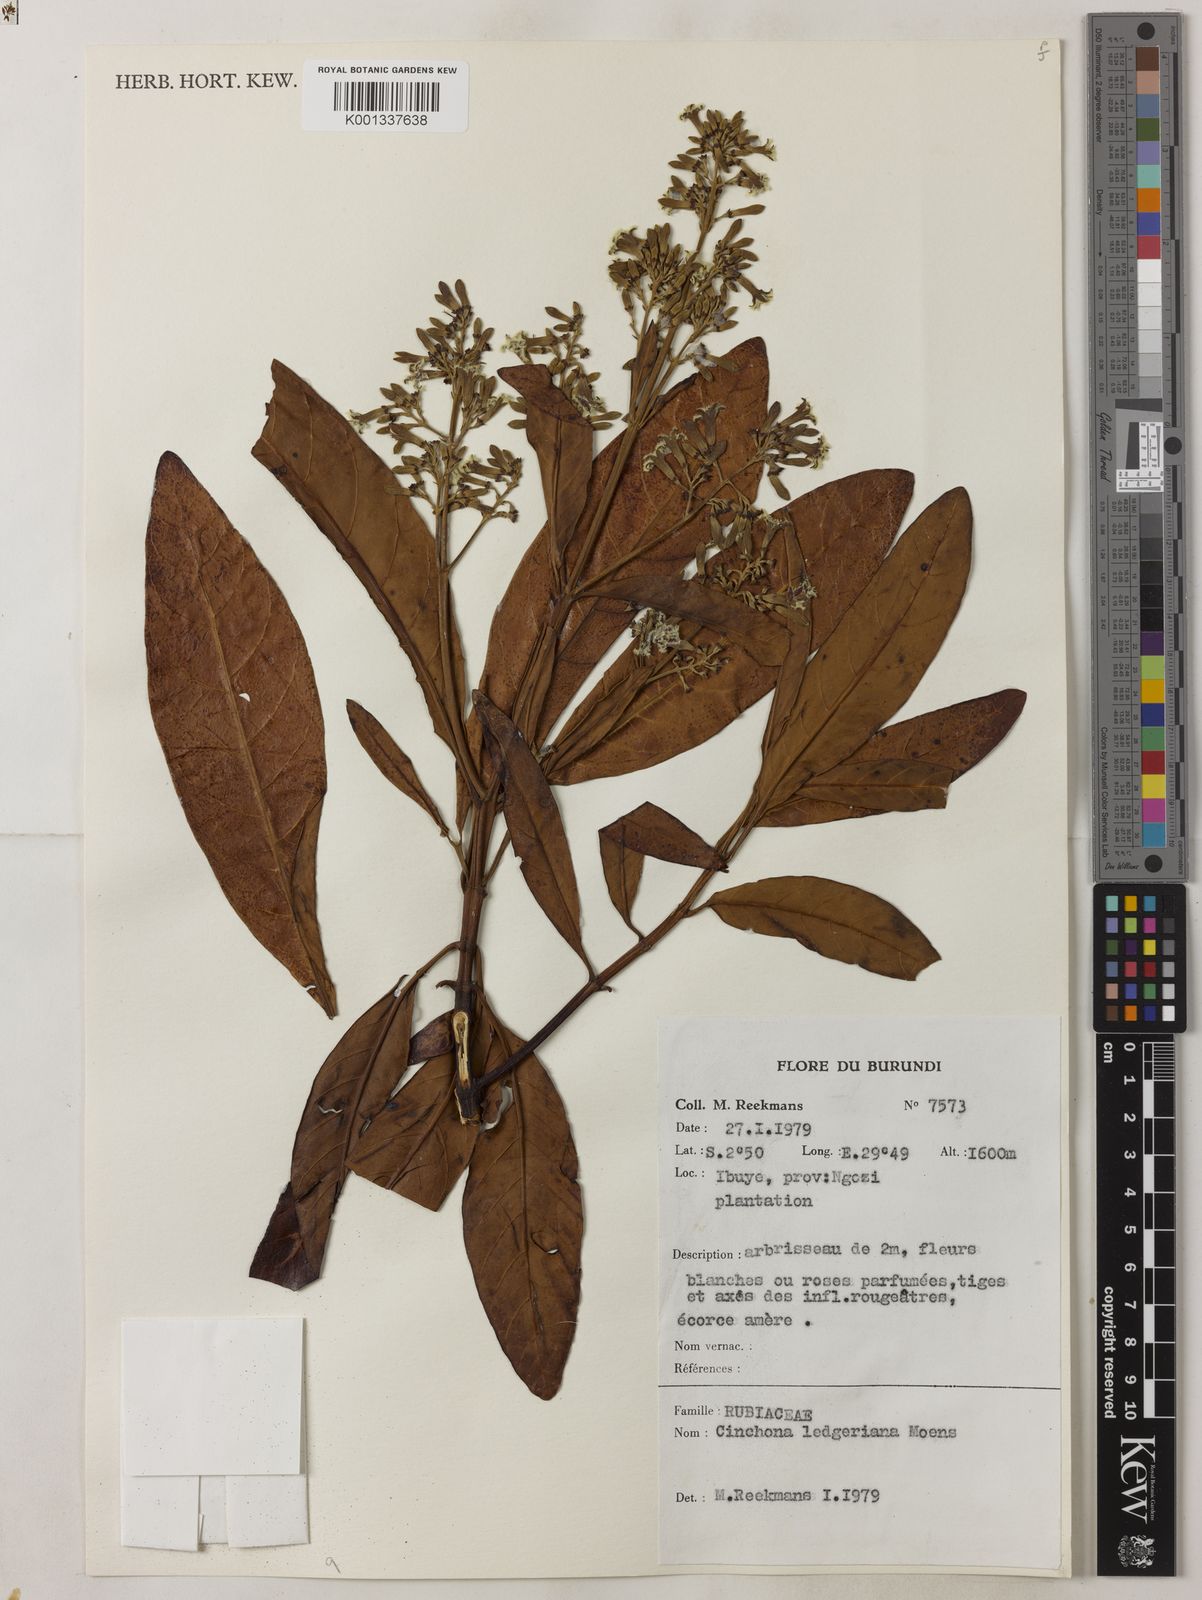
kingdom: Plantae
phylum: Tracheophyta
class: Magnoliopsida
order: Gentianales
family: Rubiaceae
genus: Cinchona
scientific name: Cinchona calisaya
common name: Ledgerbark
